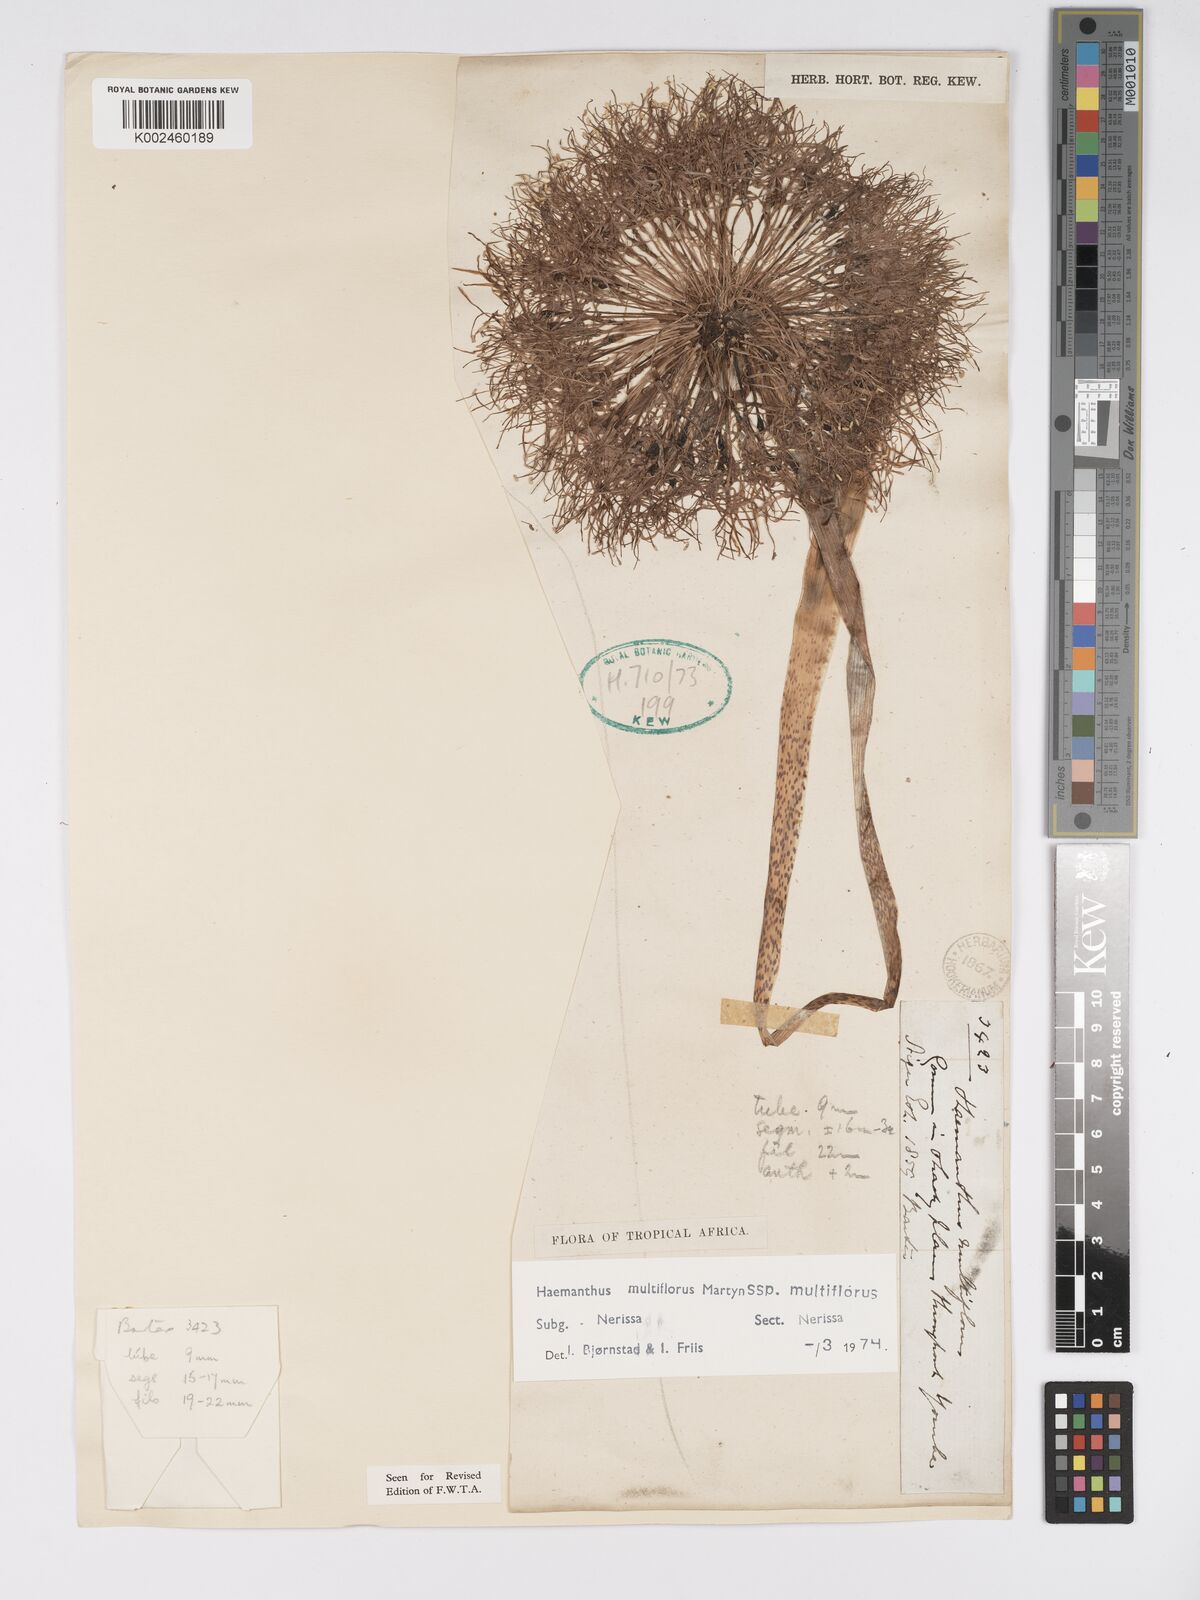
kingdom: Plantae
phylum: Tracheophyta
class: Liliopsida
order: Asparagales
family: Amaryllidaceae
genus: Scadoxus
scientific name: Scadoxus multiflorus
